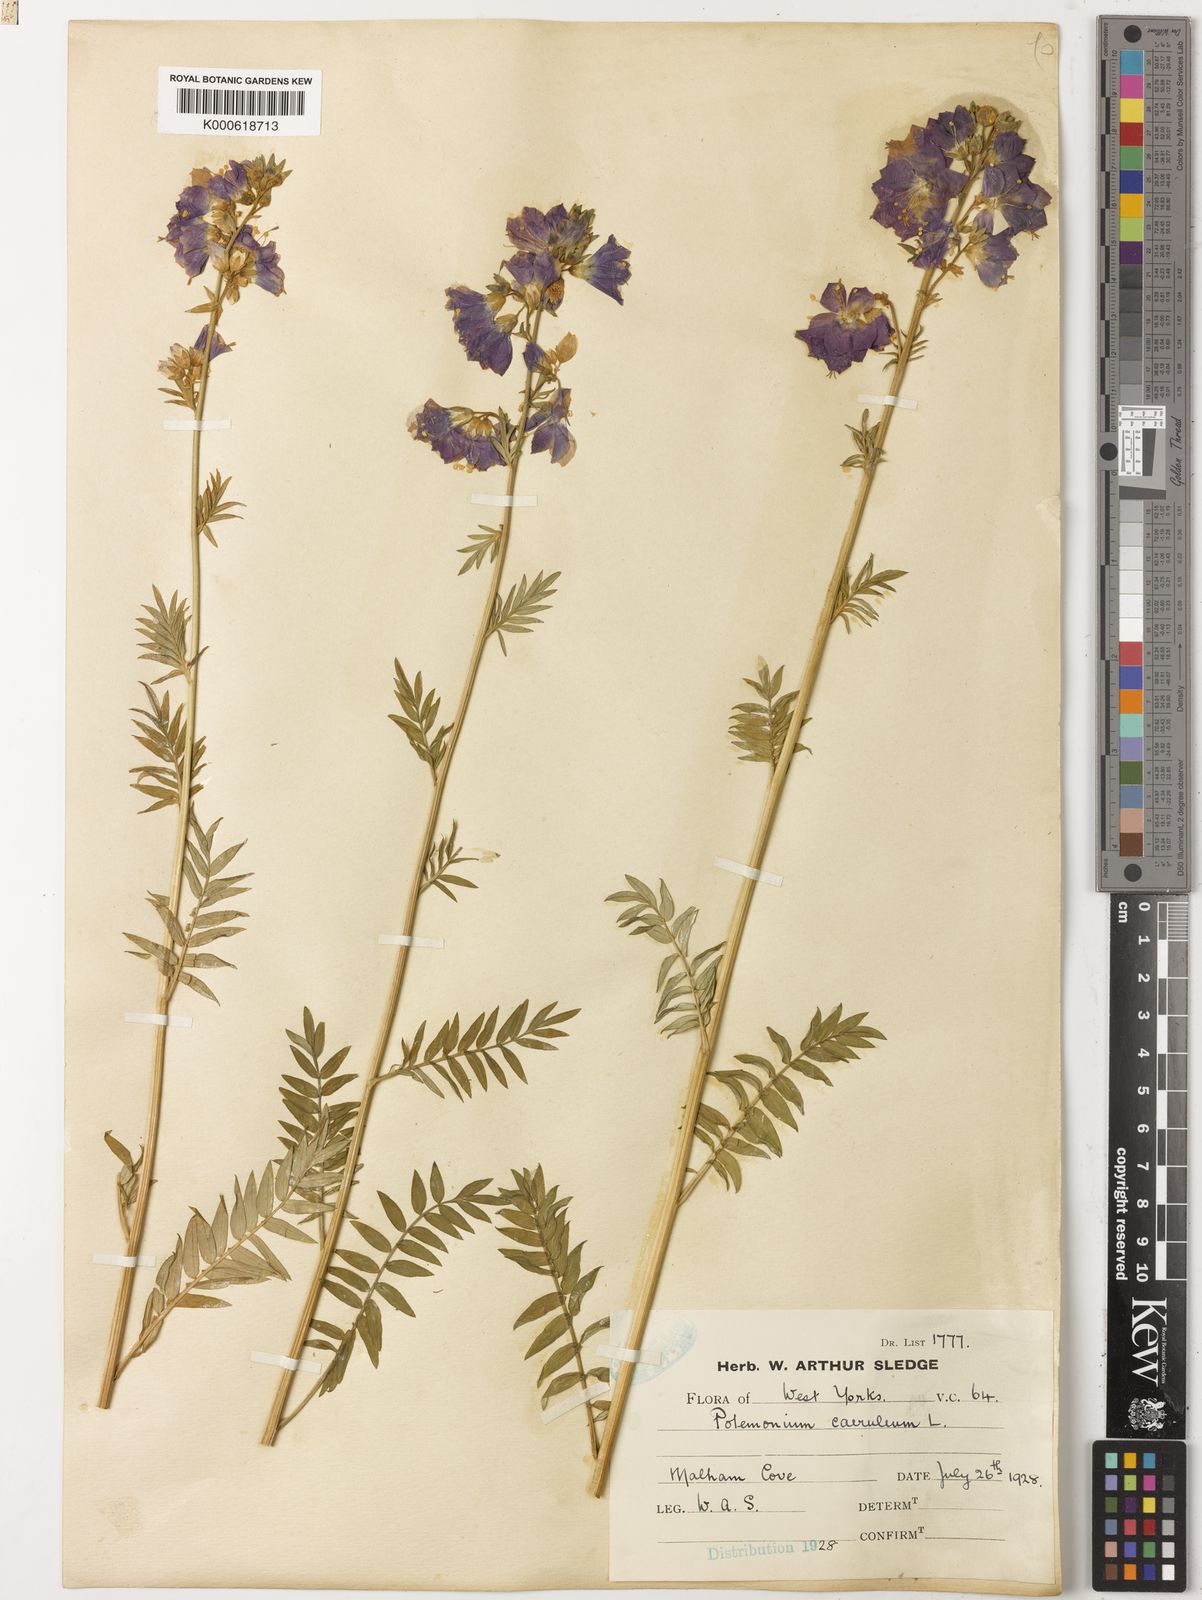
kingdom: Plantae
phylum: Tracheophyta
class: Magnoliopsida
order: Ericales
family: Polemoniaceae
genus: Polemonium
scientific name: Polemonium caeruleum
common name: Jacob's-ladder
